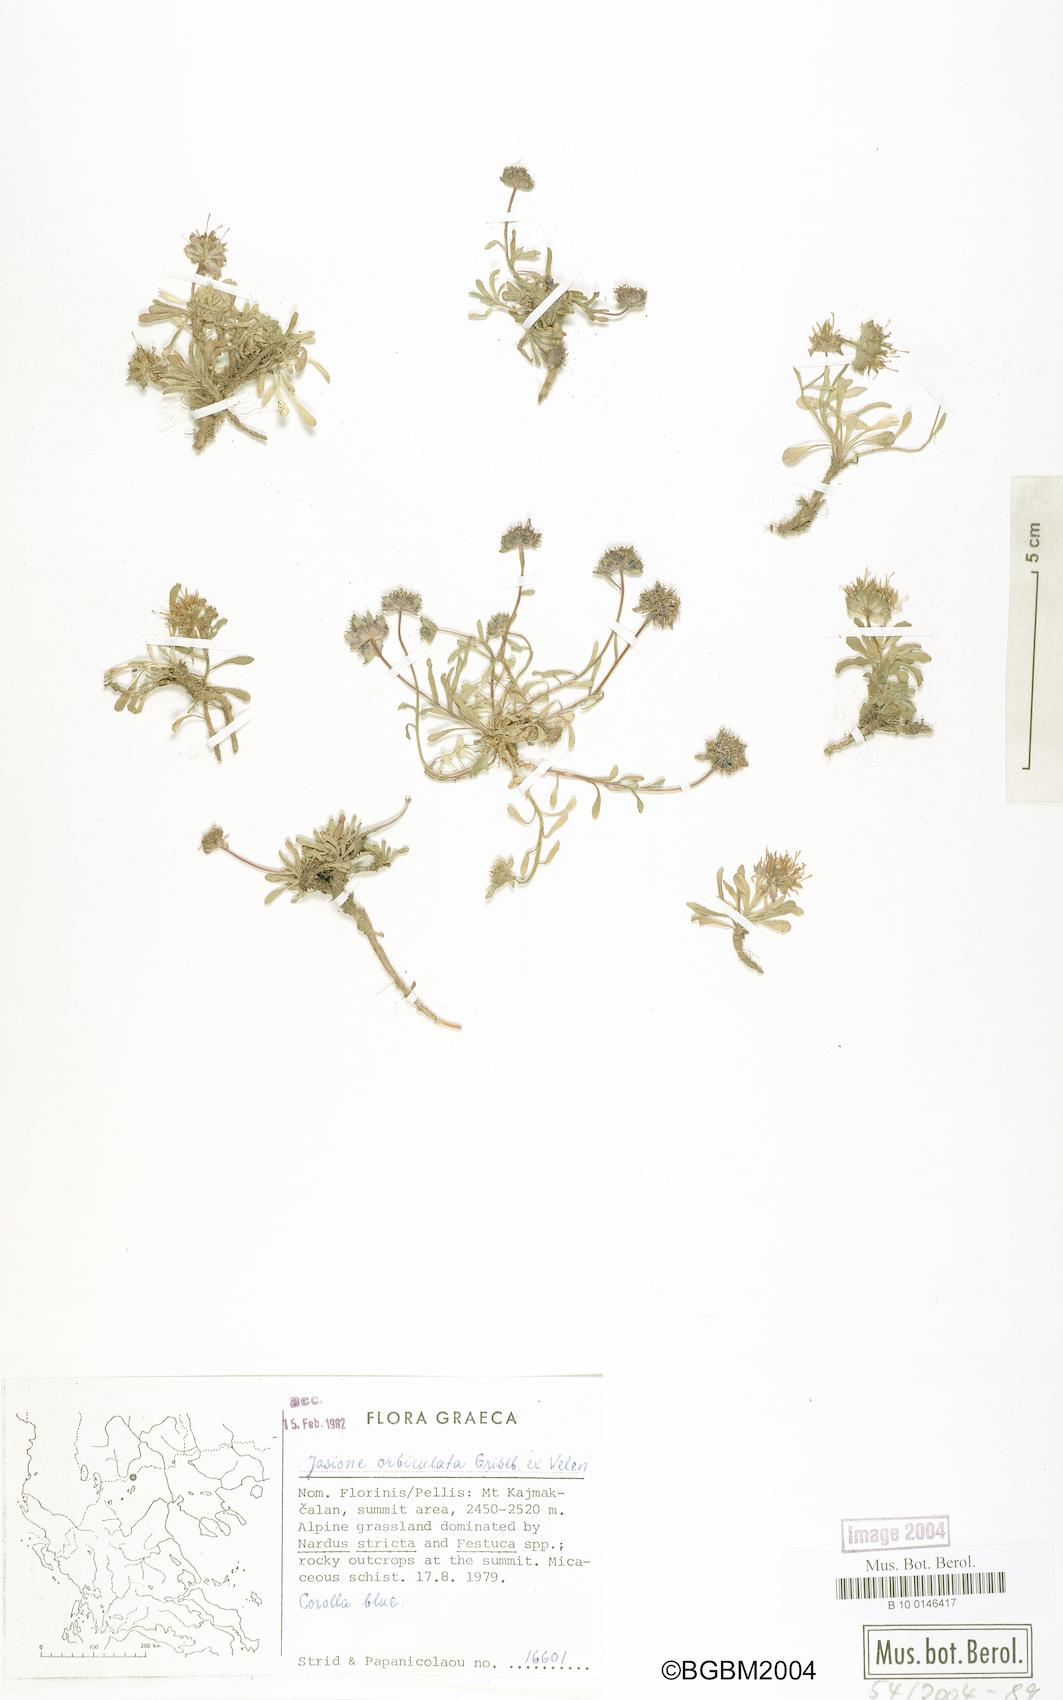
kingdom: Plantae
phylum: Tracheophyta
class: Magnoliopsida
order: Asterales
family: Campanulaceae
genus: Jasione
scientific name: Jasione orbiculata
